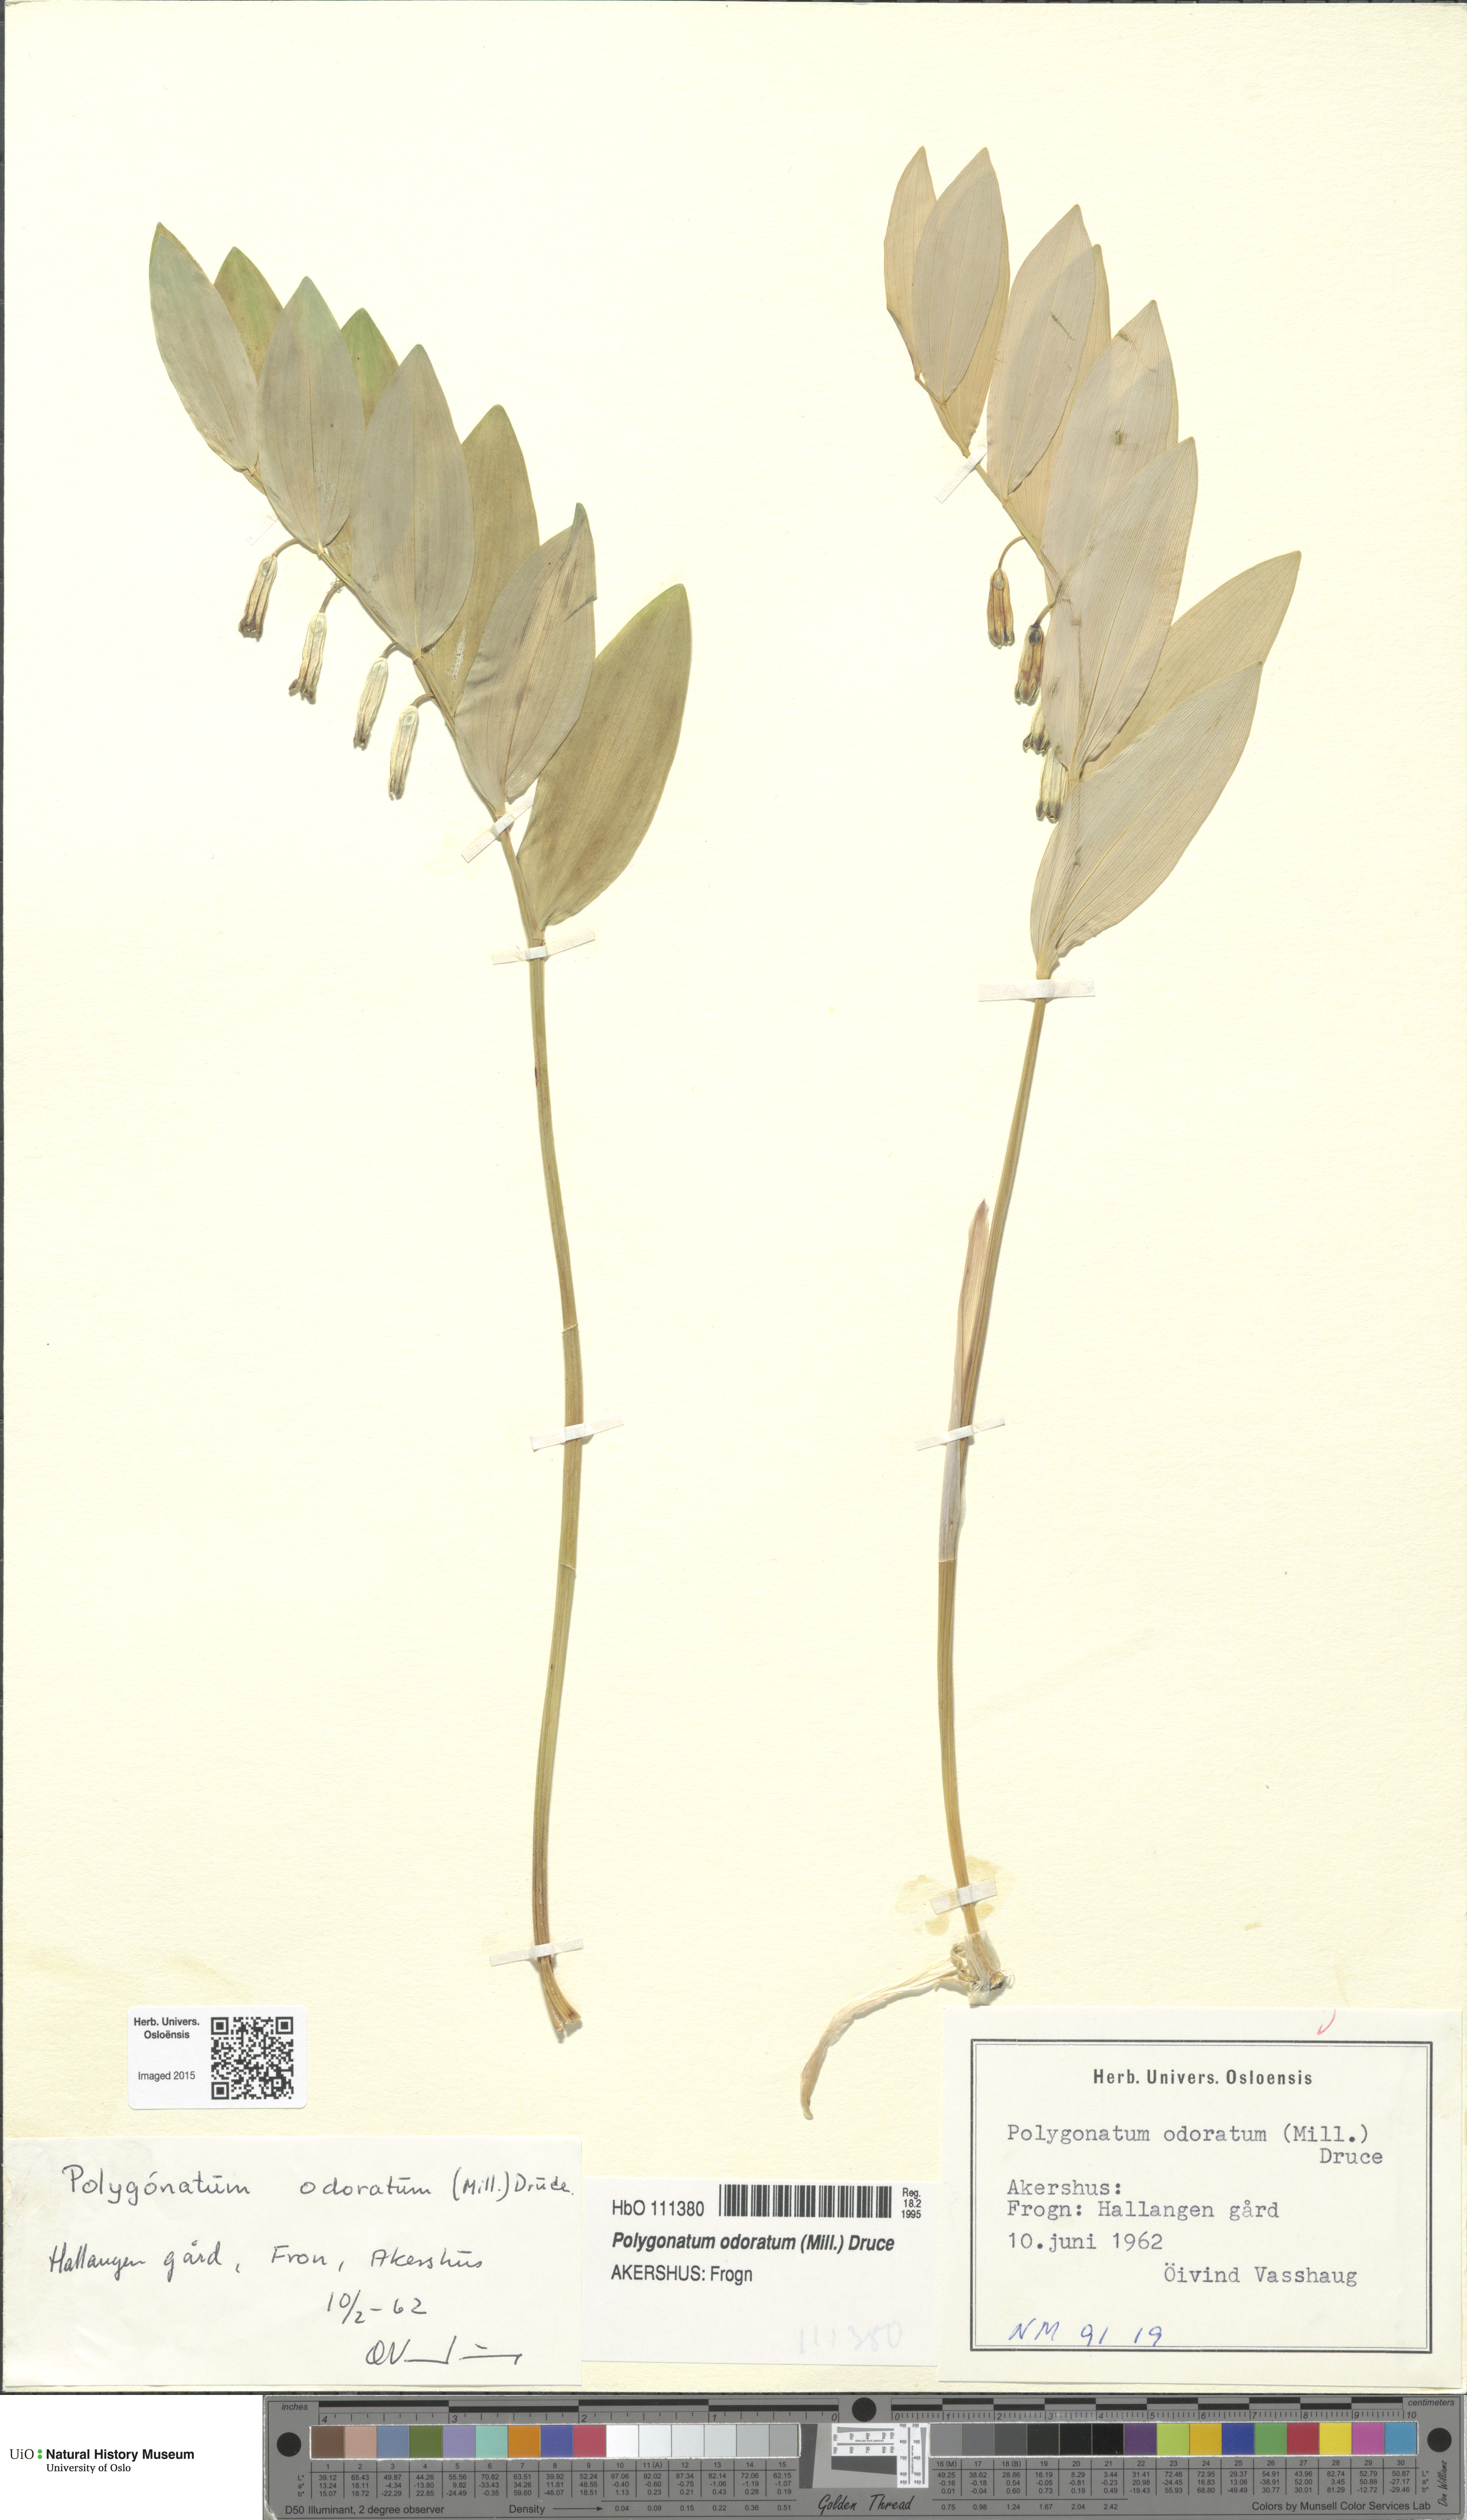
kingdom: Plantae
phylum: Tracheophyta
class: Liliopsida
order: Asparagales
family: Asparagaceae
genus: Polygonatum
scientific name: Polygonatum odoratum
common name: Angular solomon's-seal
